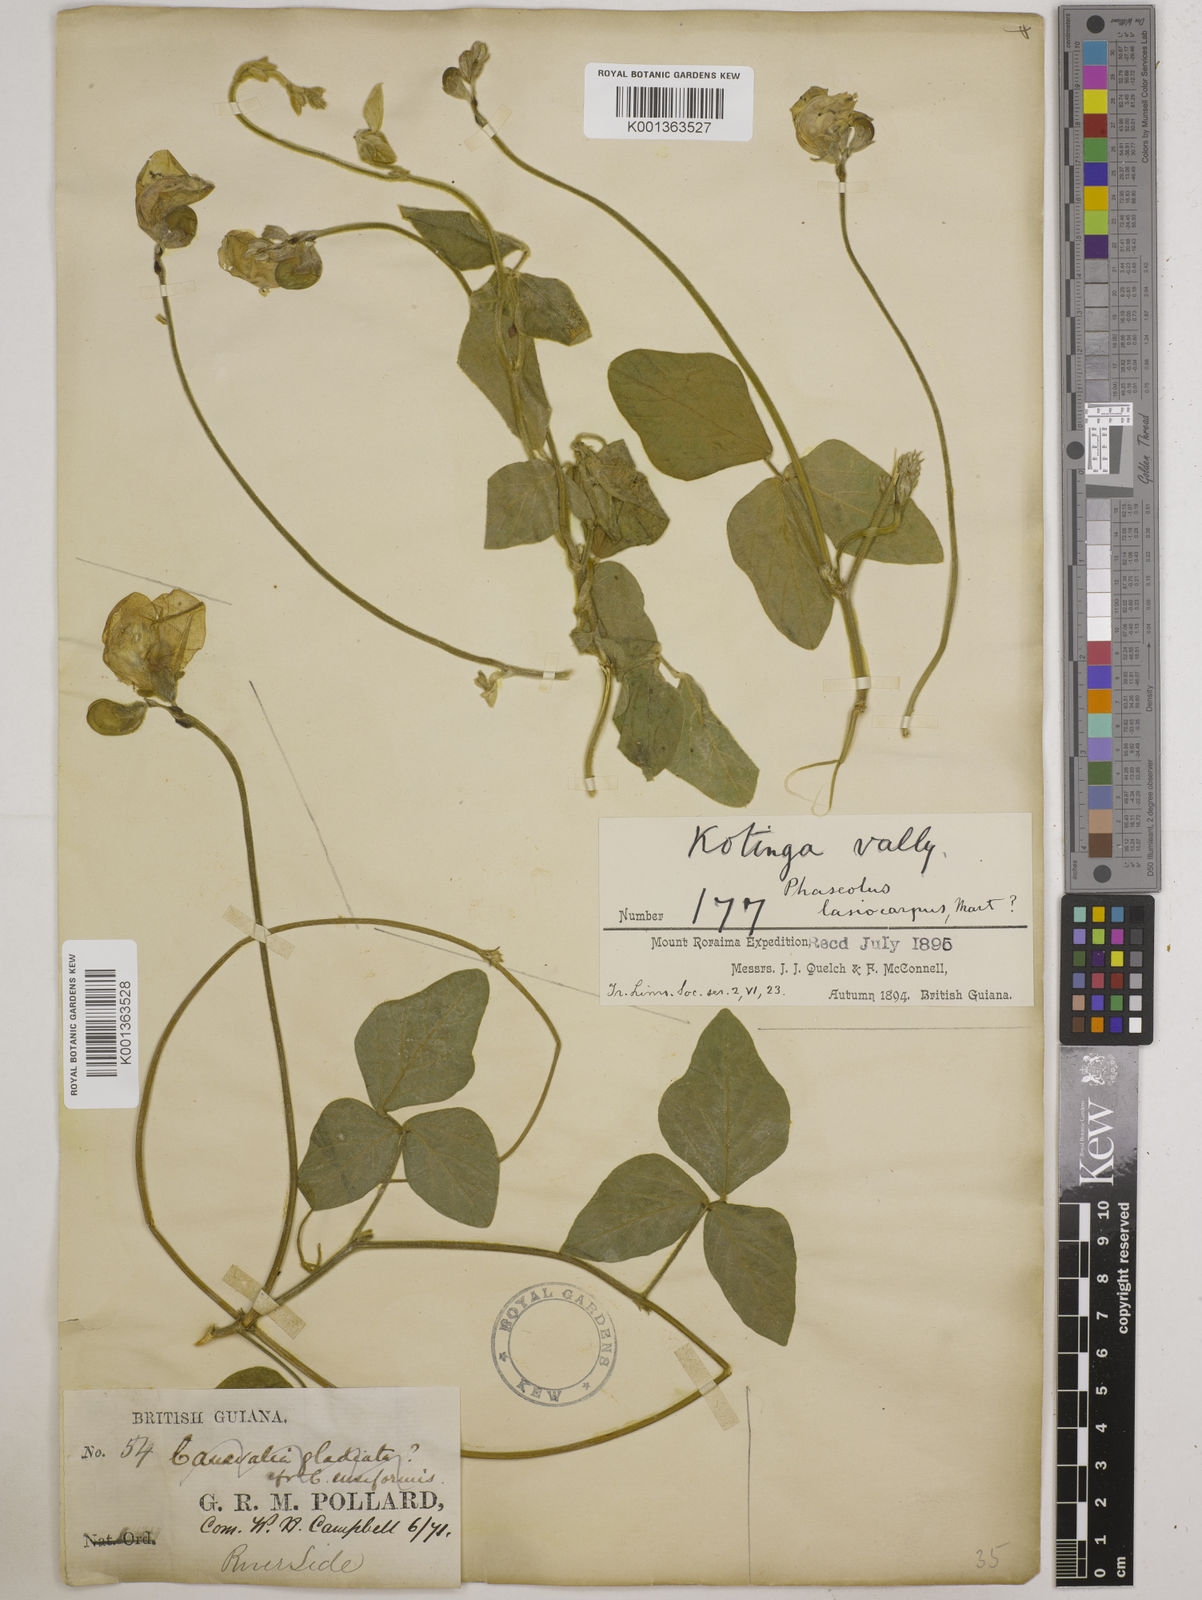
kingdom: Plantae
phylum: Tracheophyta
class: Magnoliopsida
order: Fabales
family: Fabaceae
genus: Vigna
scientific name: Vigna lasiocarpa
